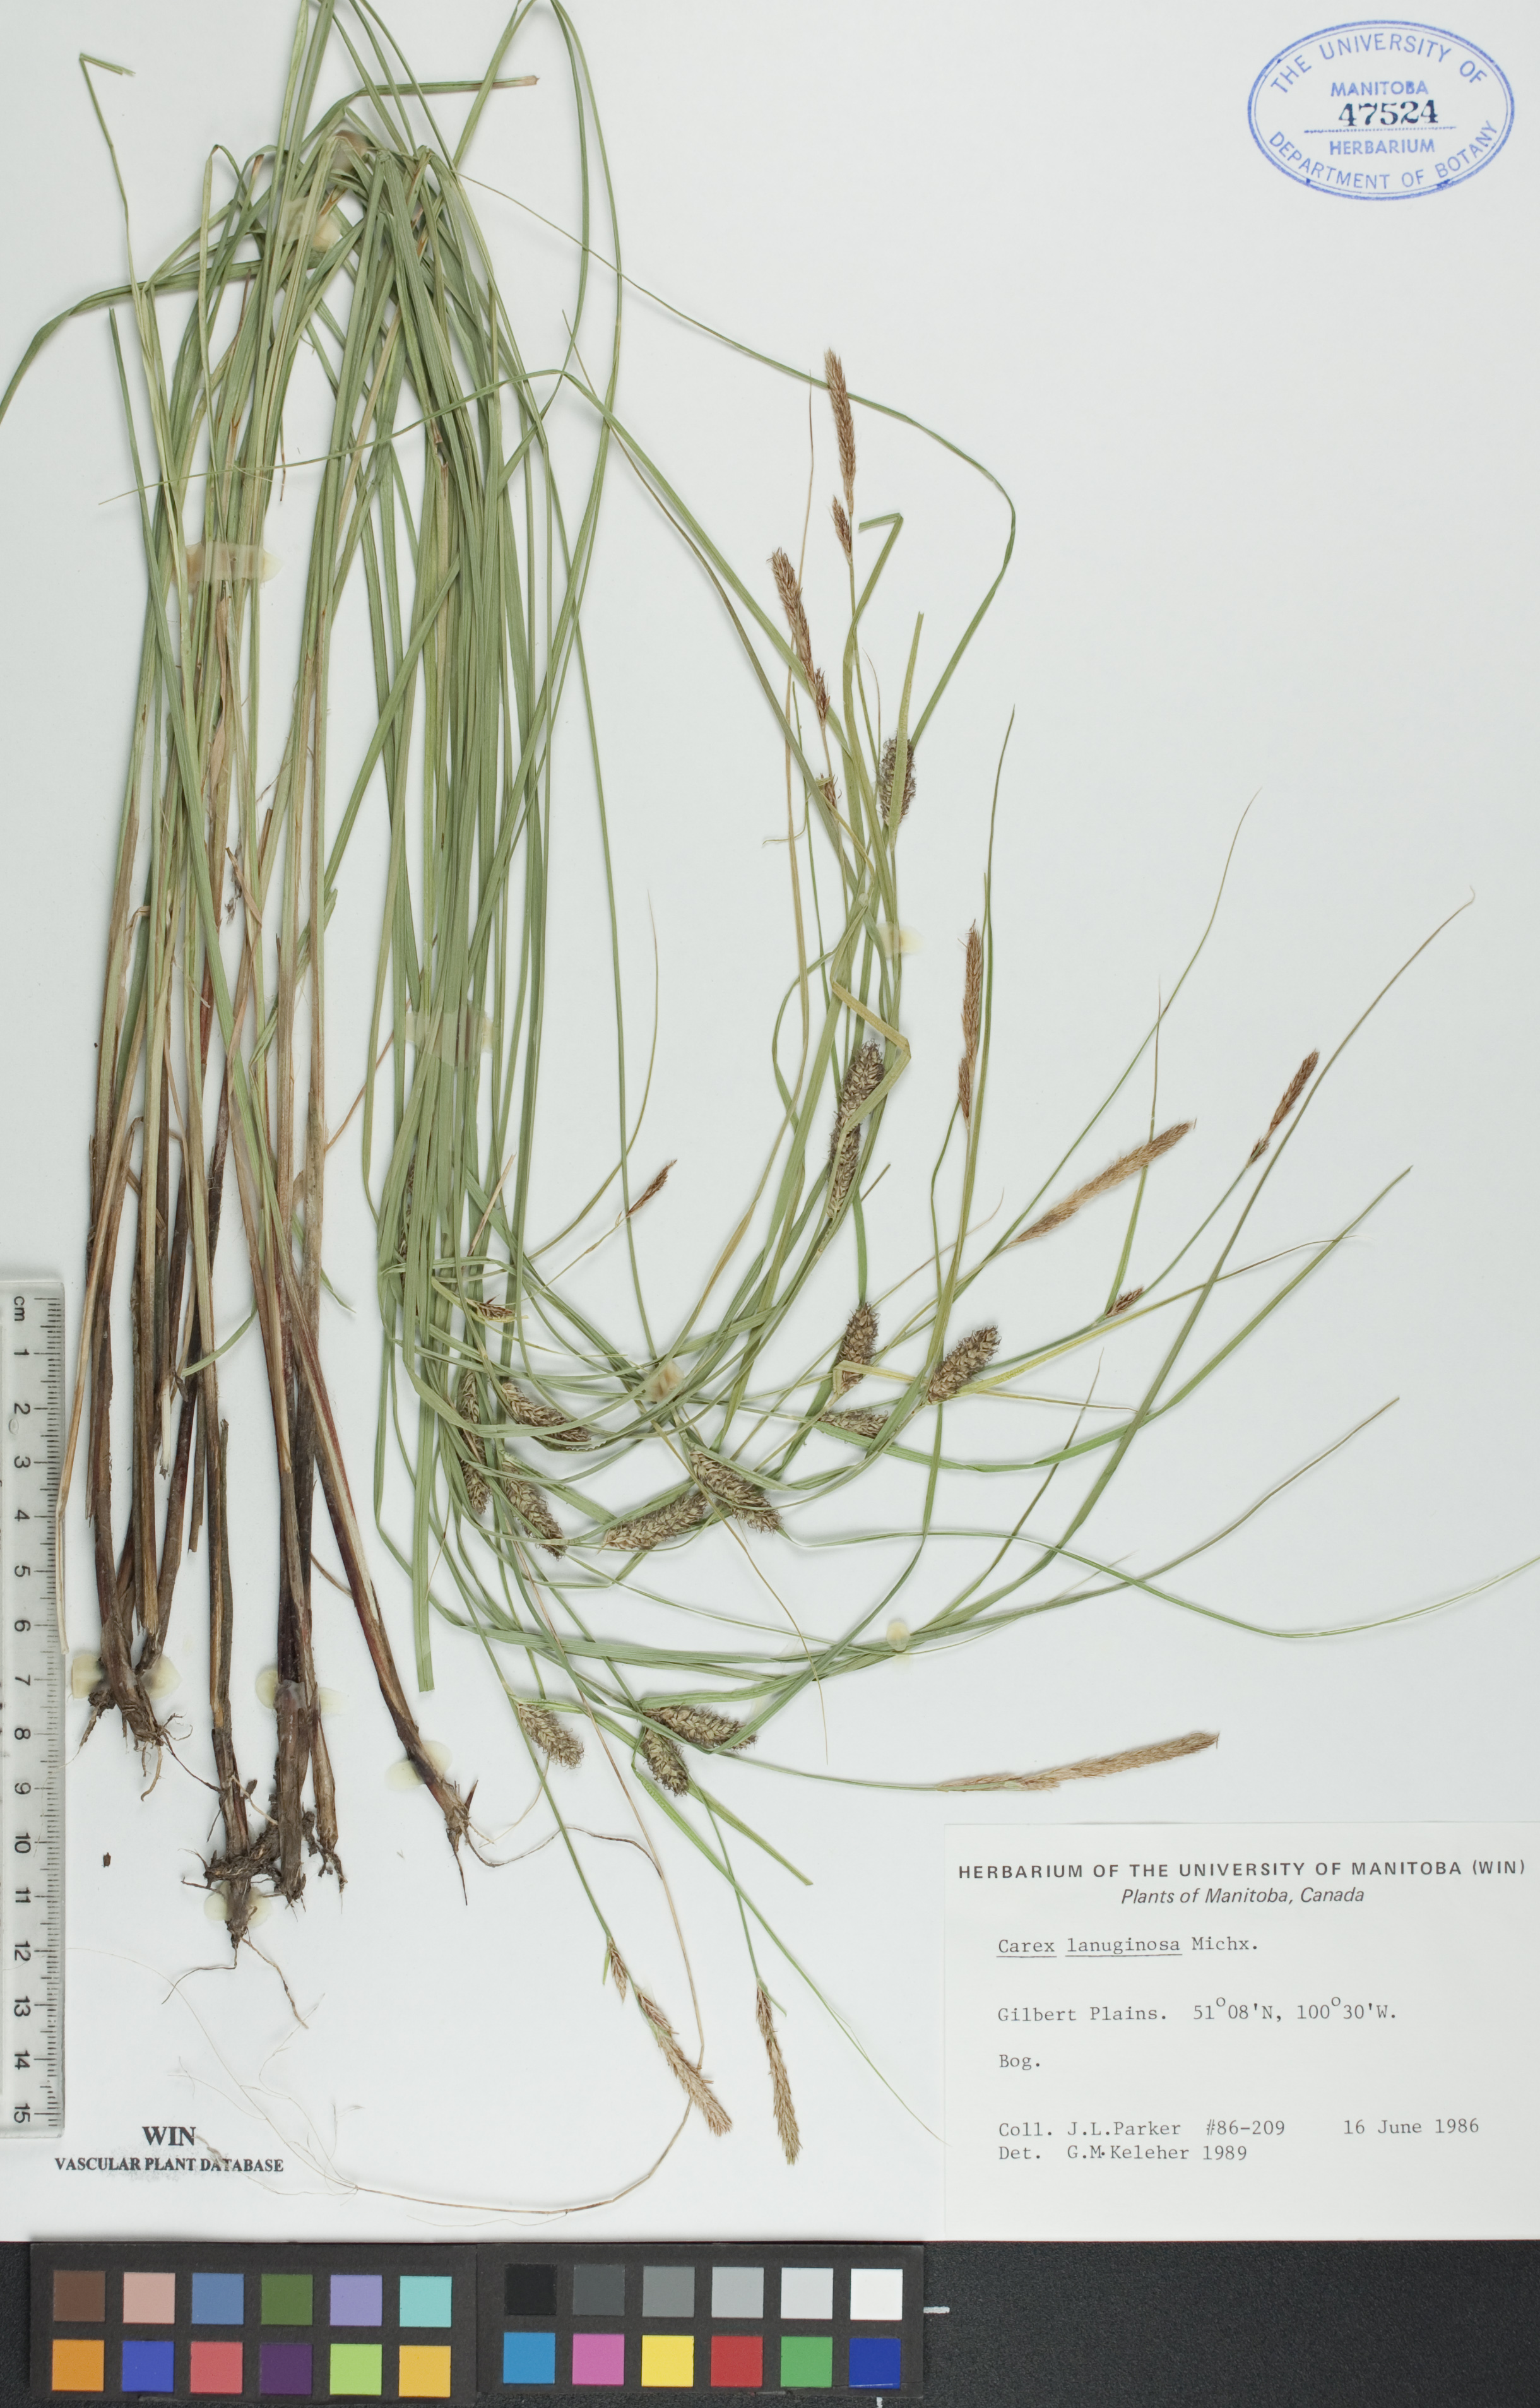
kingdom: Plantae
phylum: Tracheophyta
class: Liliopsida
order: Poales
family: Cyperaceae
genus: Carex
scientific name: Carex lasiocarpa
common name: Slender sedge
